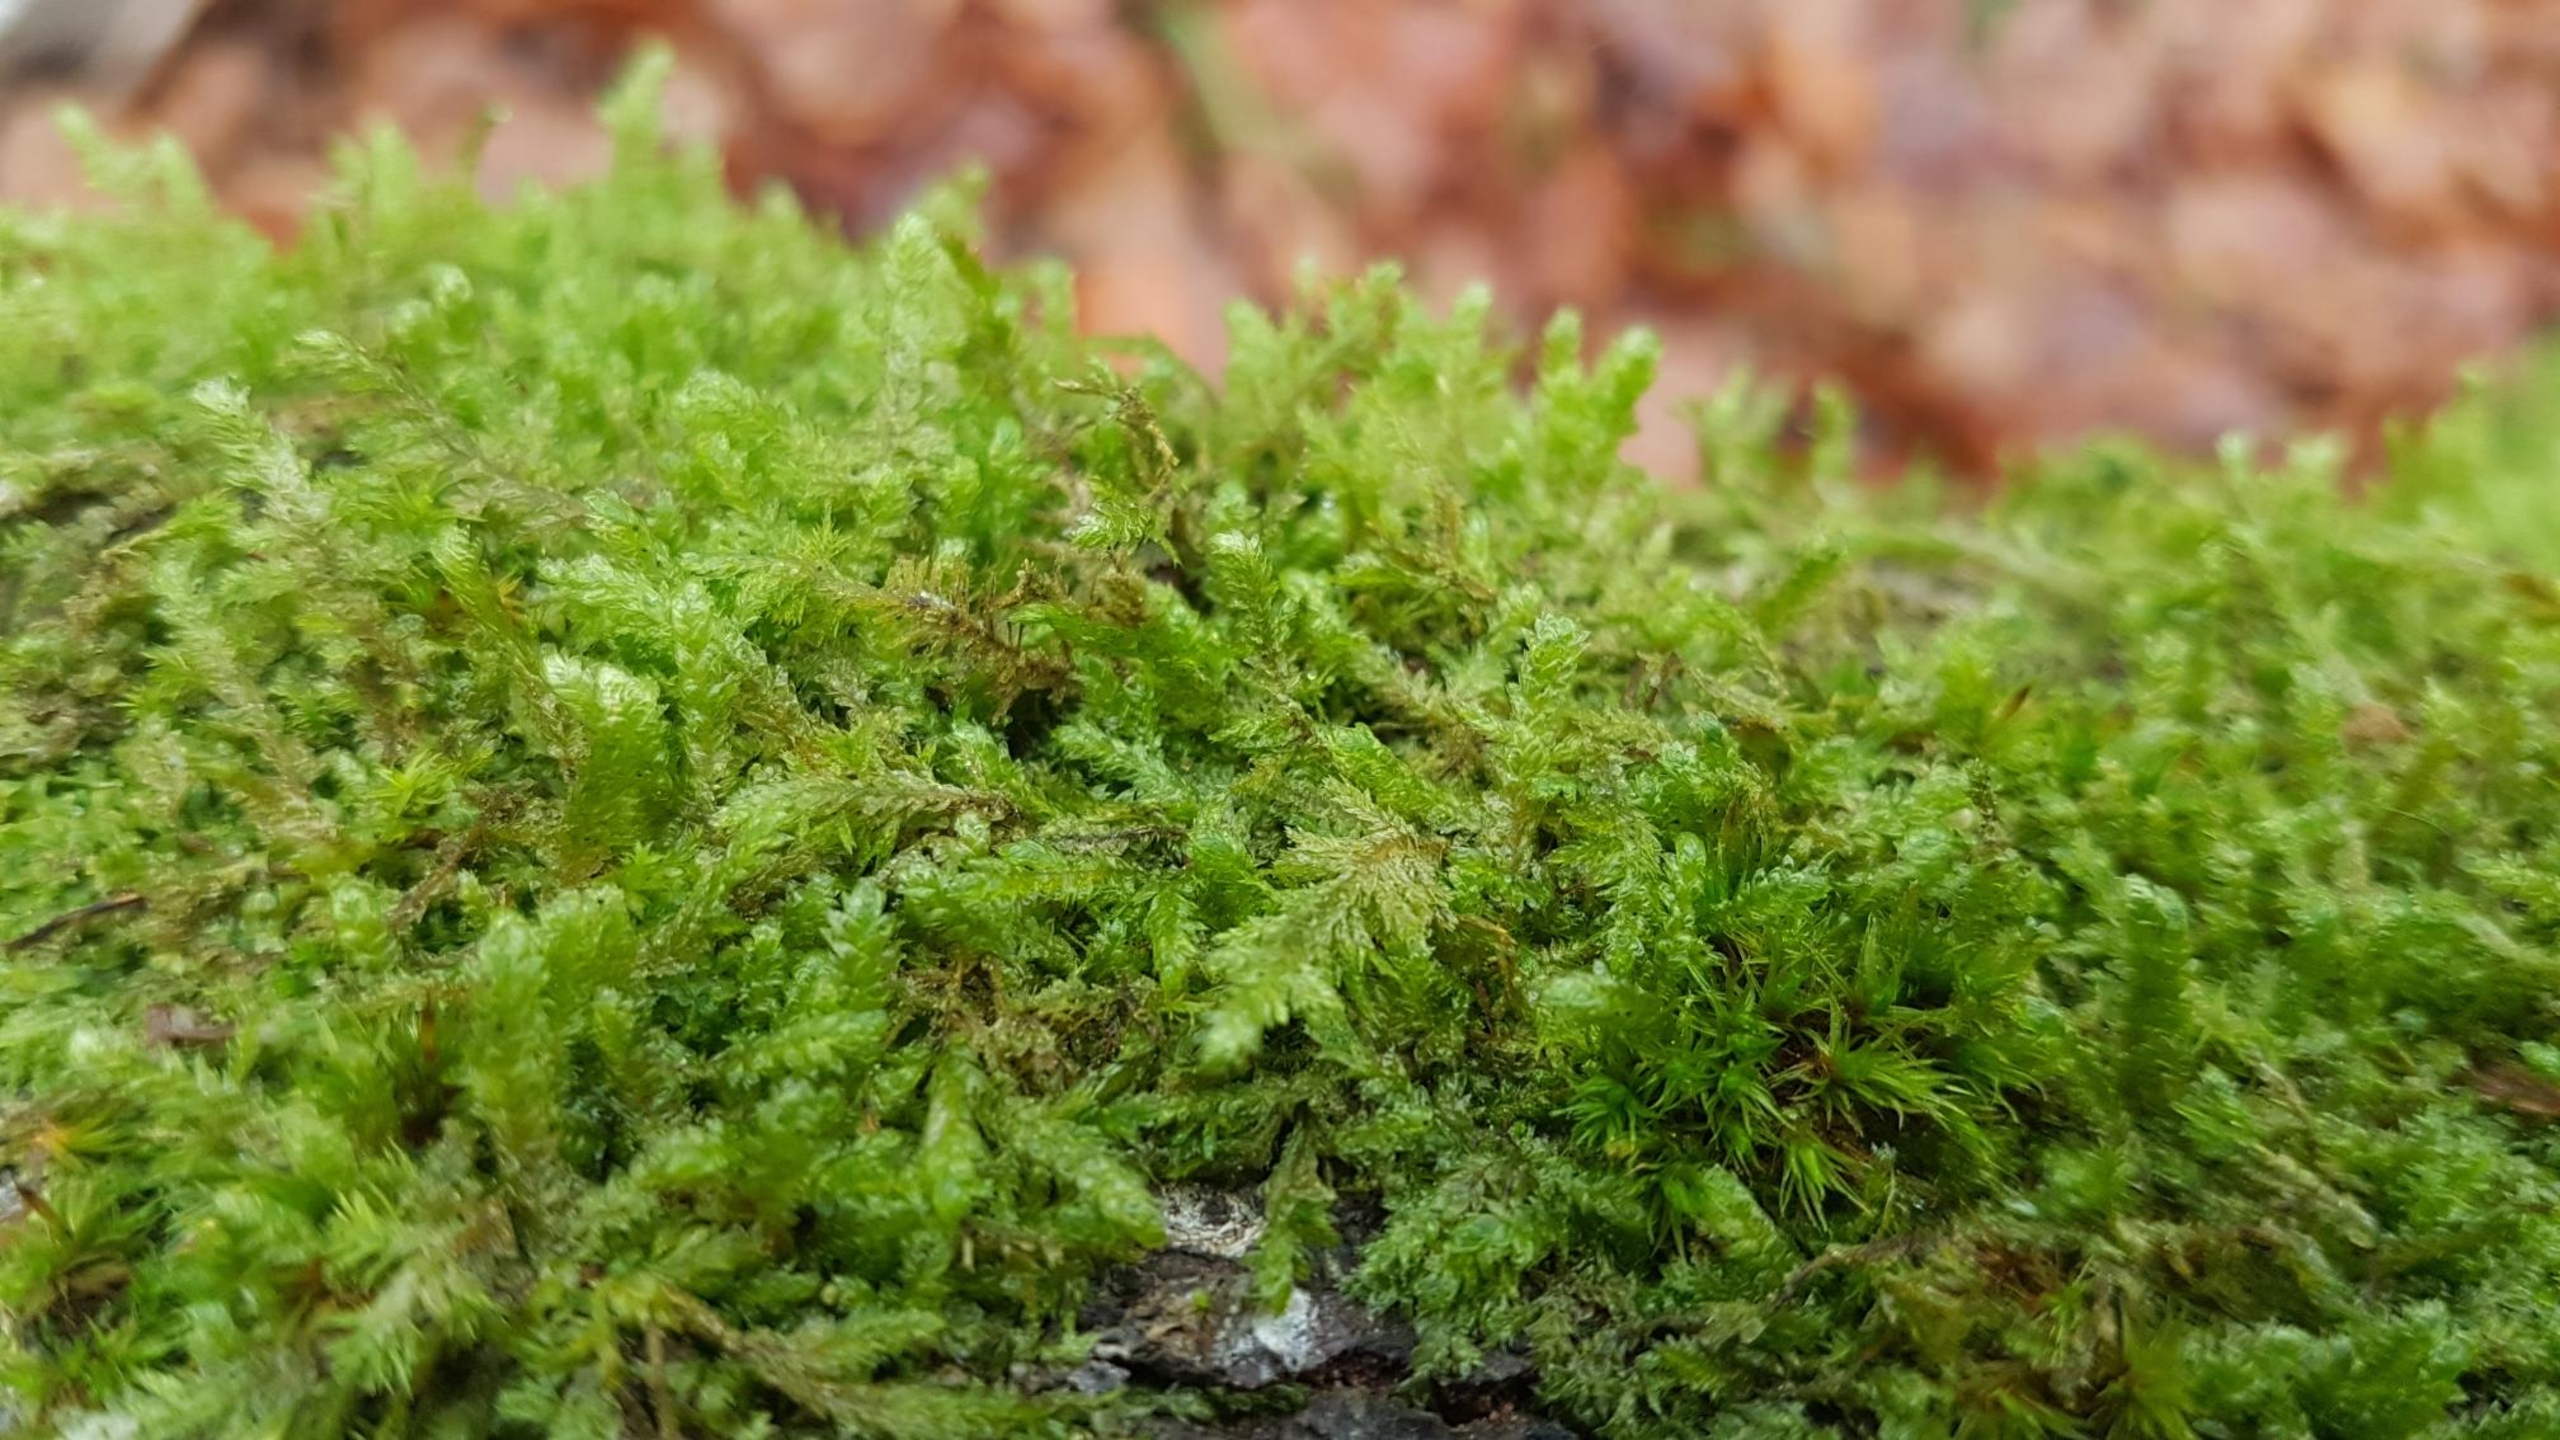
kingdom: Plantae
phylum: Bryophyta
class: Bryopsida
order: Hypnales
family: Neckeraceae
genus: Neckera
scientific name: Neckera pumila
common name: Lav fladmos
